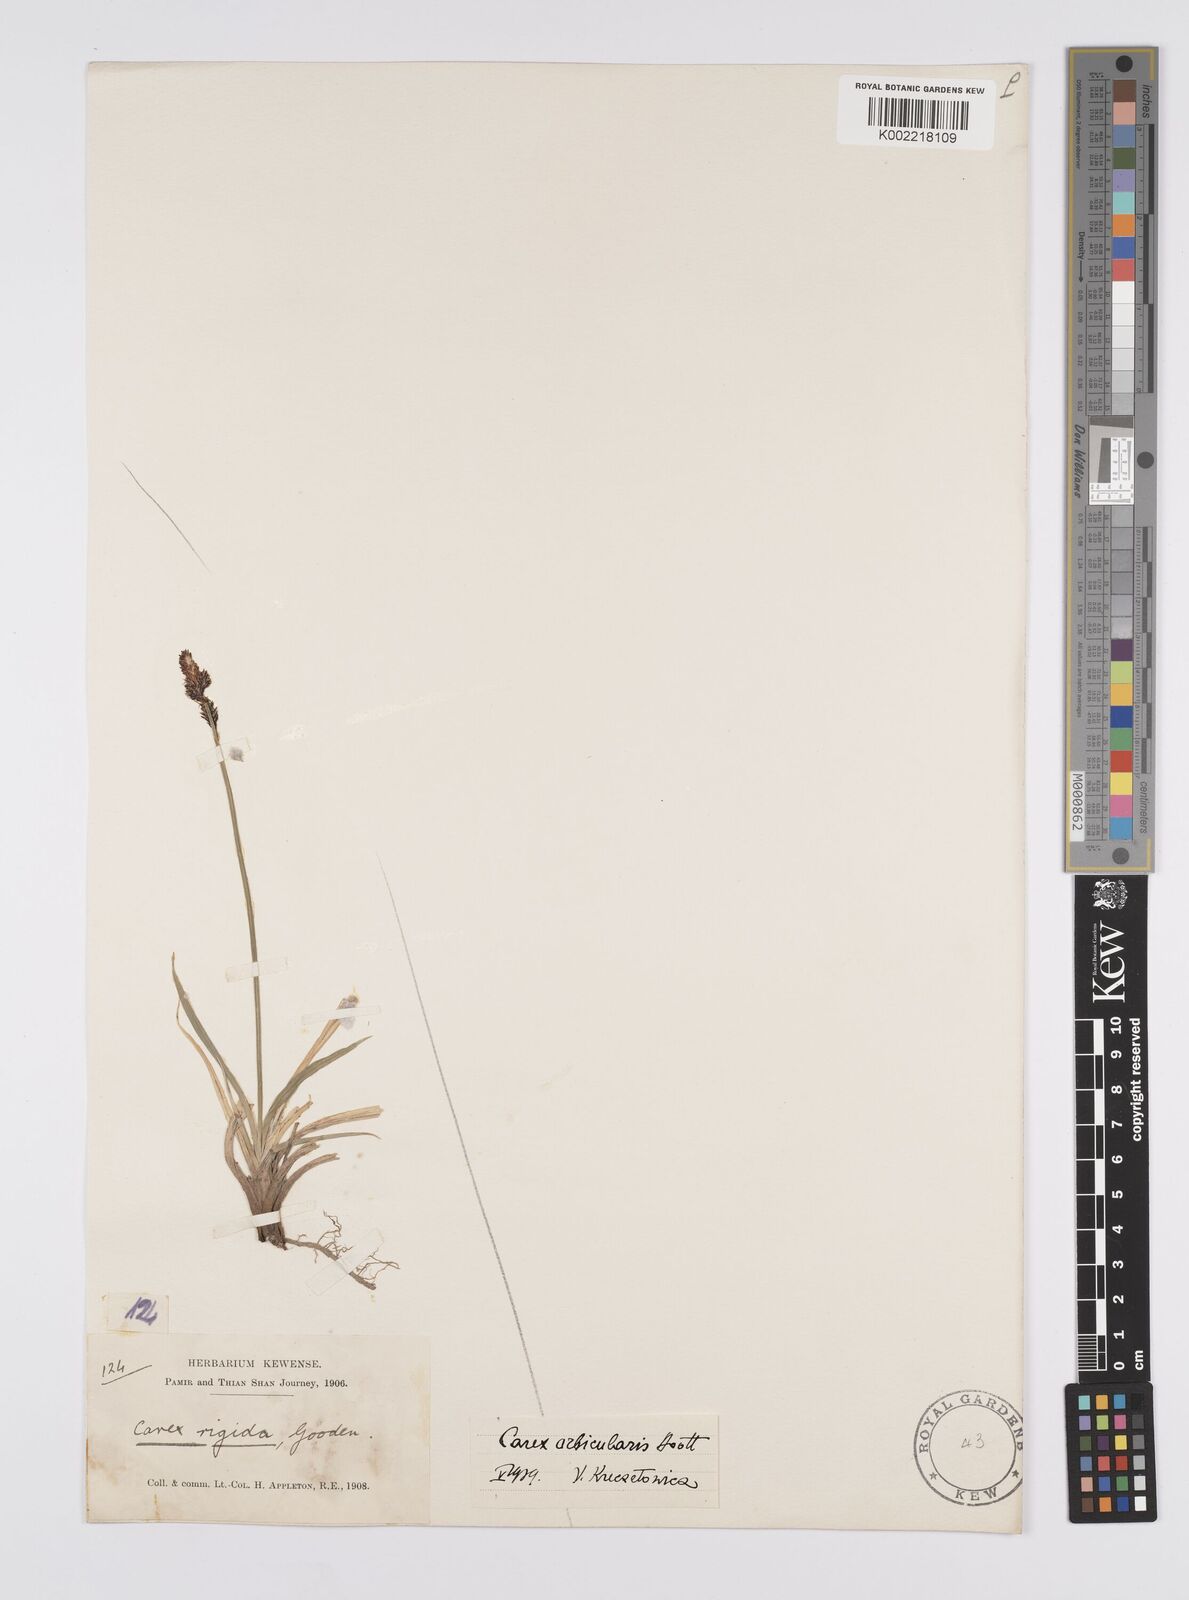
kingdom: Plantae
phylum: Tracheophyta
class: Liliopsida
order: Poales
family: Cyperaceae
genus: Carex
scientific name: Carex orbicularis
